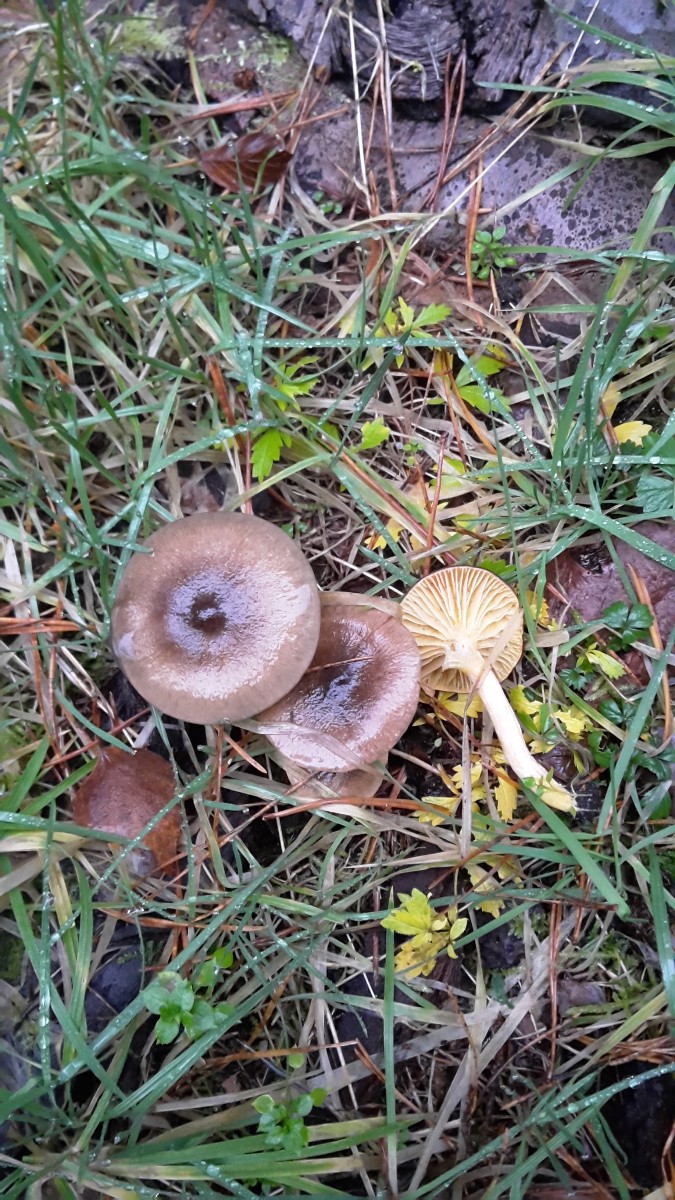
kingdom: Fungi
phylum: Basidiomycota
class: Agaricomycetes
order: Agaricales
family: Hygrophoraceae
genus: Hygrophorus
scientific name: Hygrophorus hypothejus
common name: frost-sneglehat
